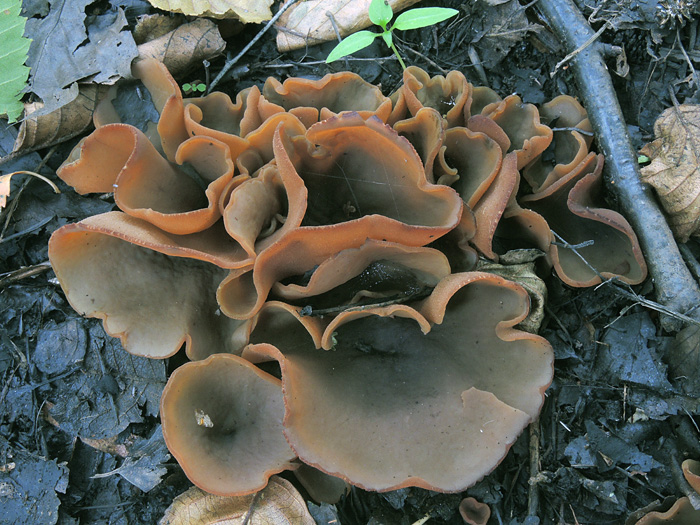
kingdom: Fungi
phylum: Ascomycota
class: Pezizomycetes
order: Pezizales
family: Pezizaceae
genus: Legaliana
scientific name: Legaliana limnaea
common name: mose-bægersvamp
